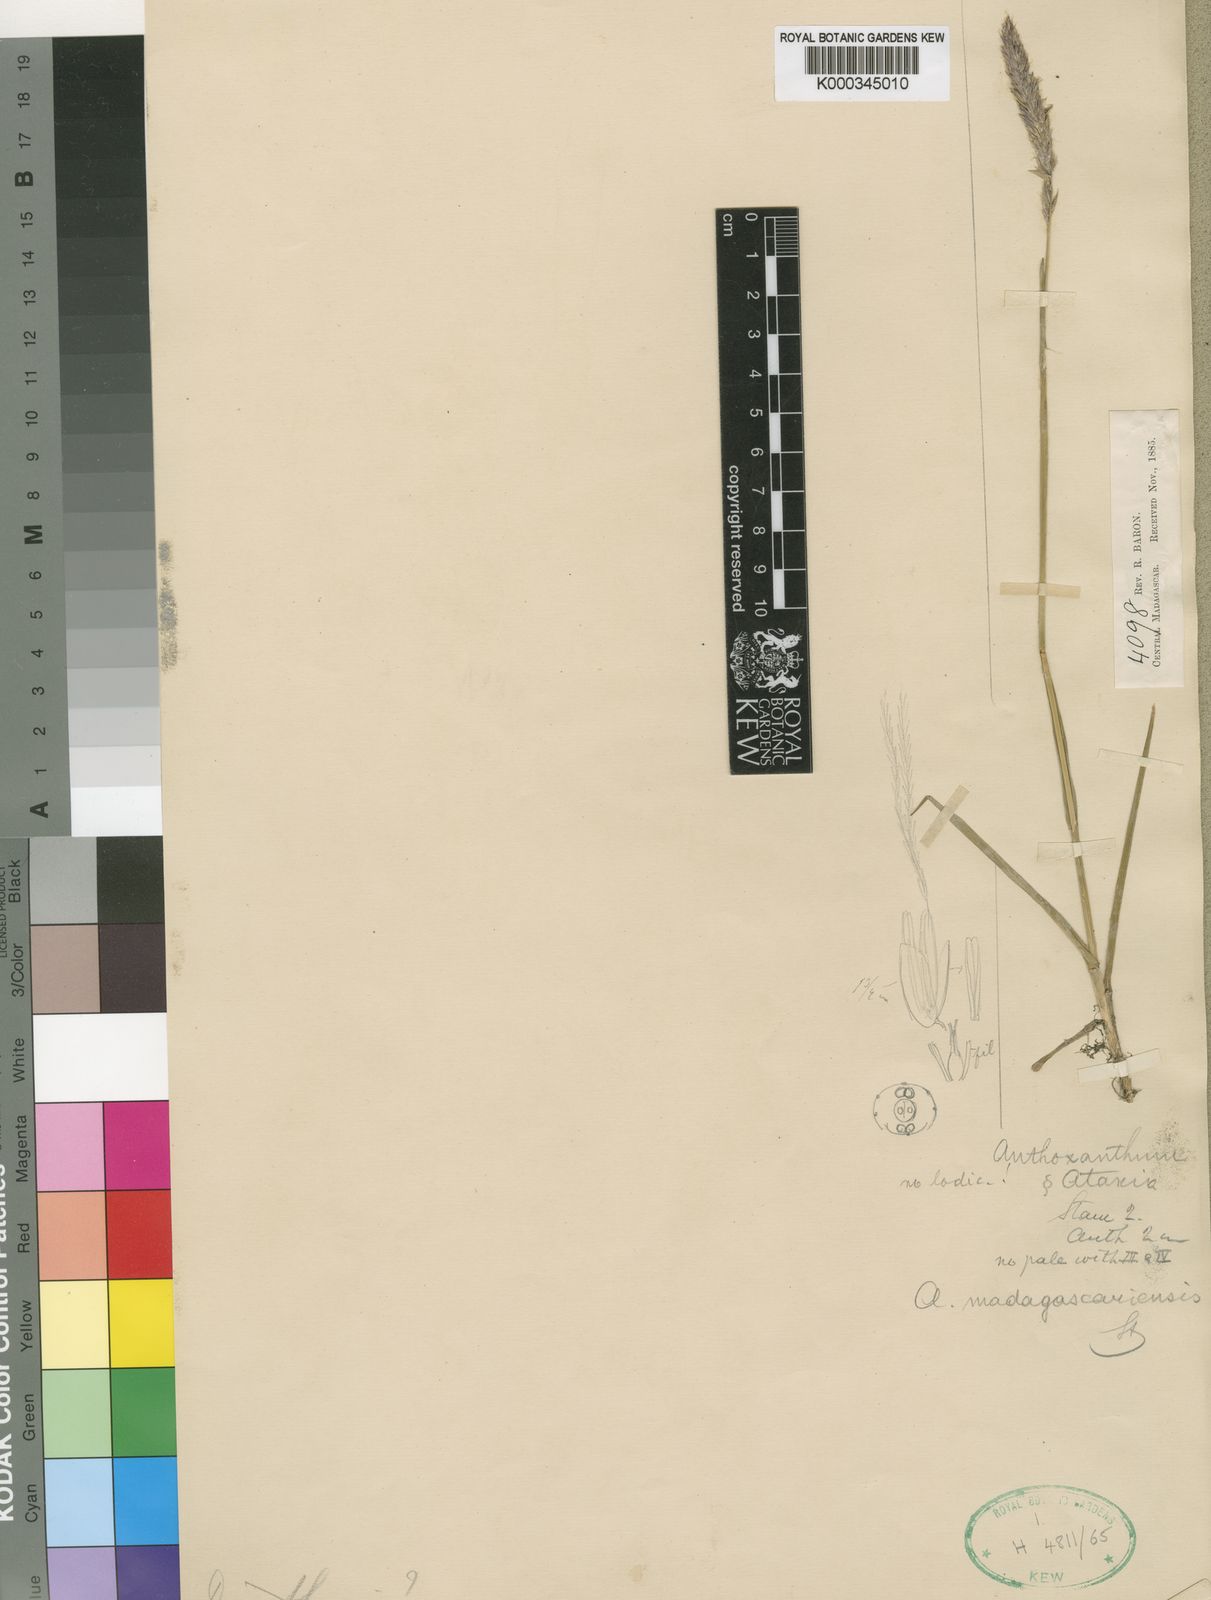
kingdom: Plantae
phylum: Tracheophyta
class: Liliopsida
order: Poales
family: Poaceae
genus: Anthoxanthum
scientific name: Anthoxanthum odoratum
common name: Sweet vernalgrass
